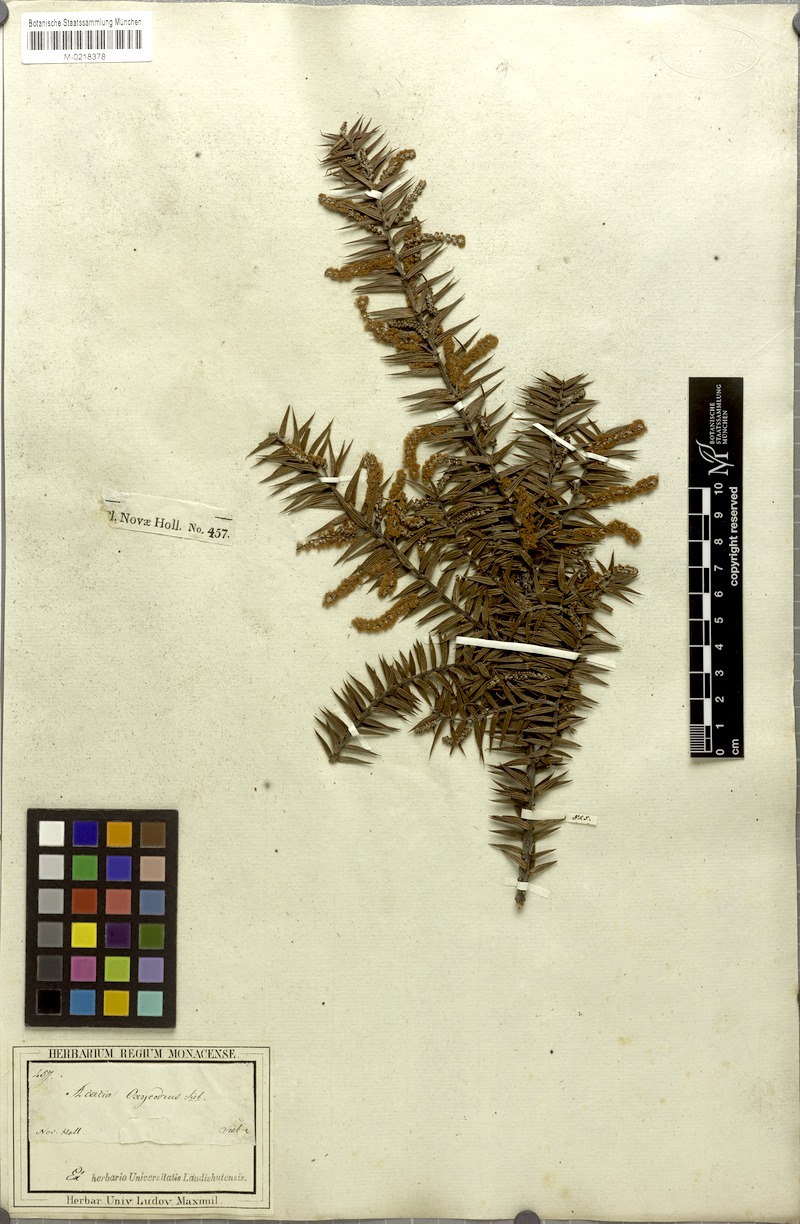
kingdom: Plantae
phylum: Tracheophyta
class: Magnoliopsida
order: Fabales
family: Fabaceae
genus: Acacia
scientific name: Acacia oxycedrus
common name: Spike wattle
